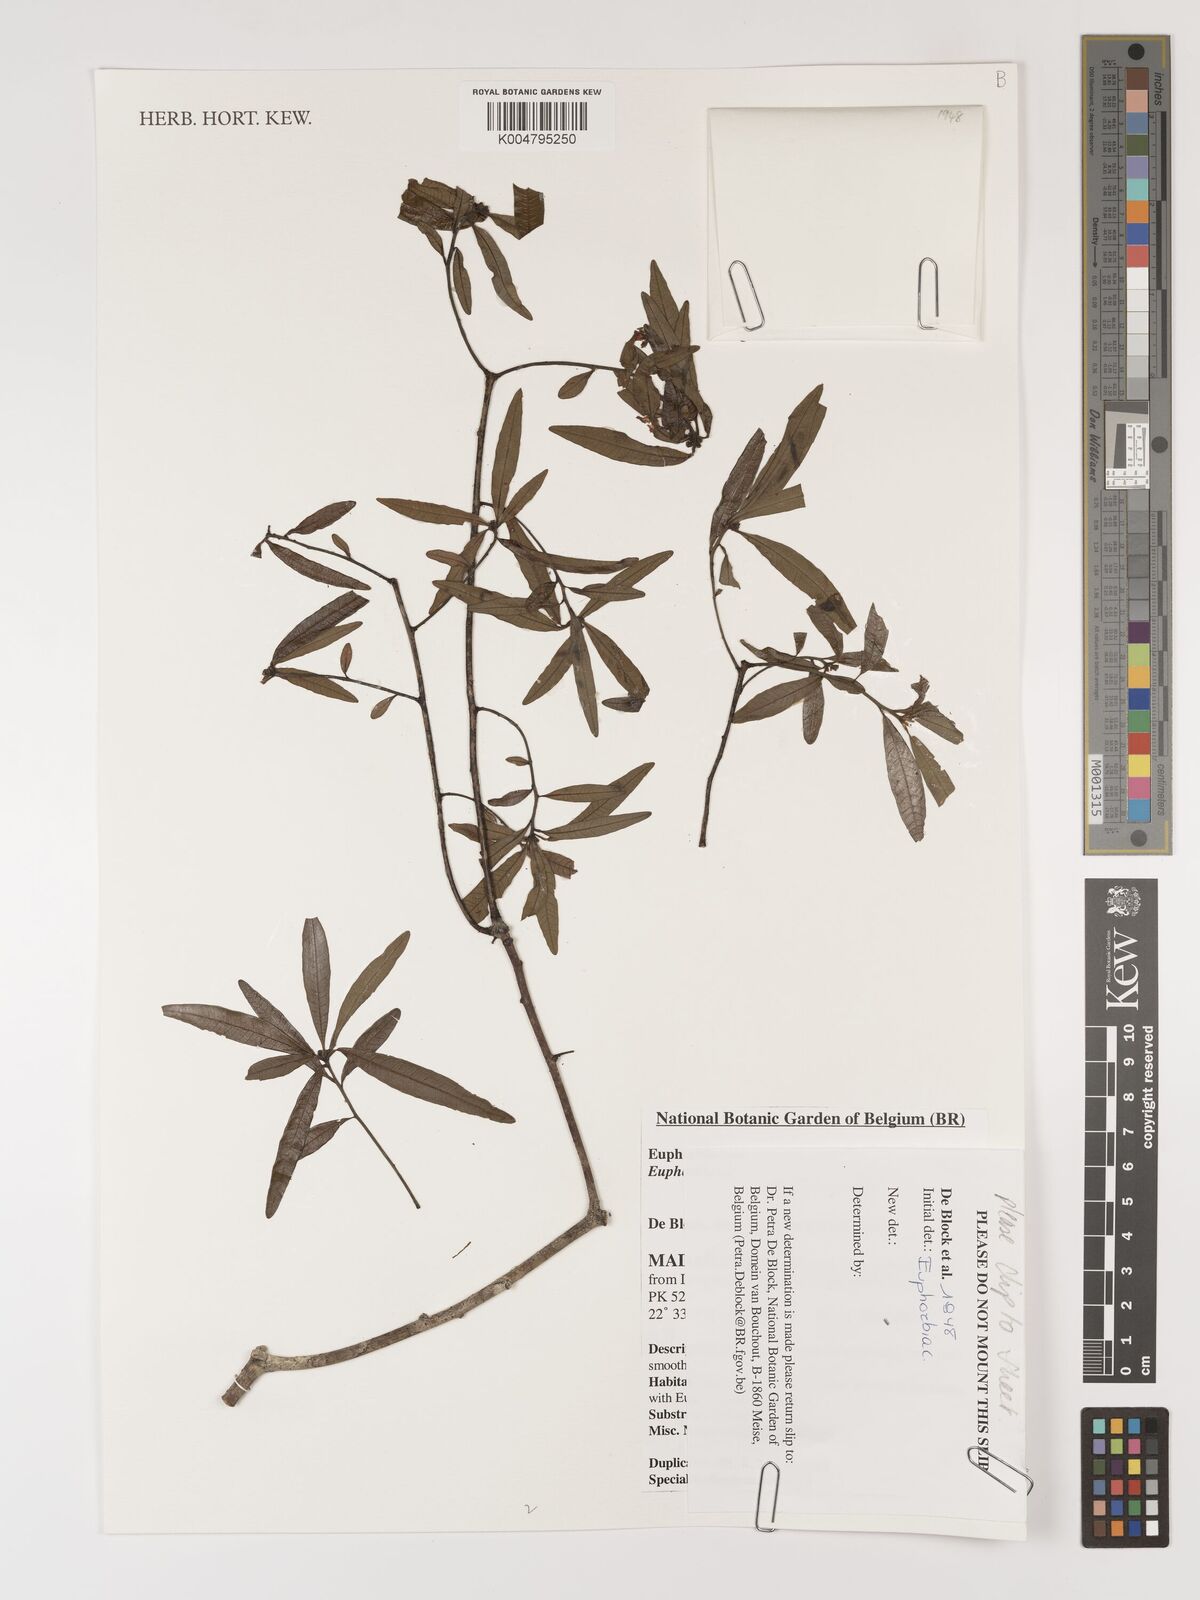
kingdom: Plantae
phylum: Tracheophyta
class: Magnoliopsida
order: Malpighiales
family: Euphorbiaceae
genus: Euphorbia
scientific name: Euphorbia
